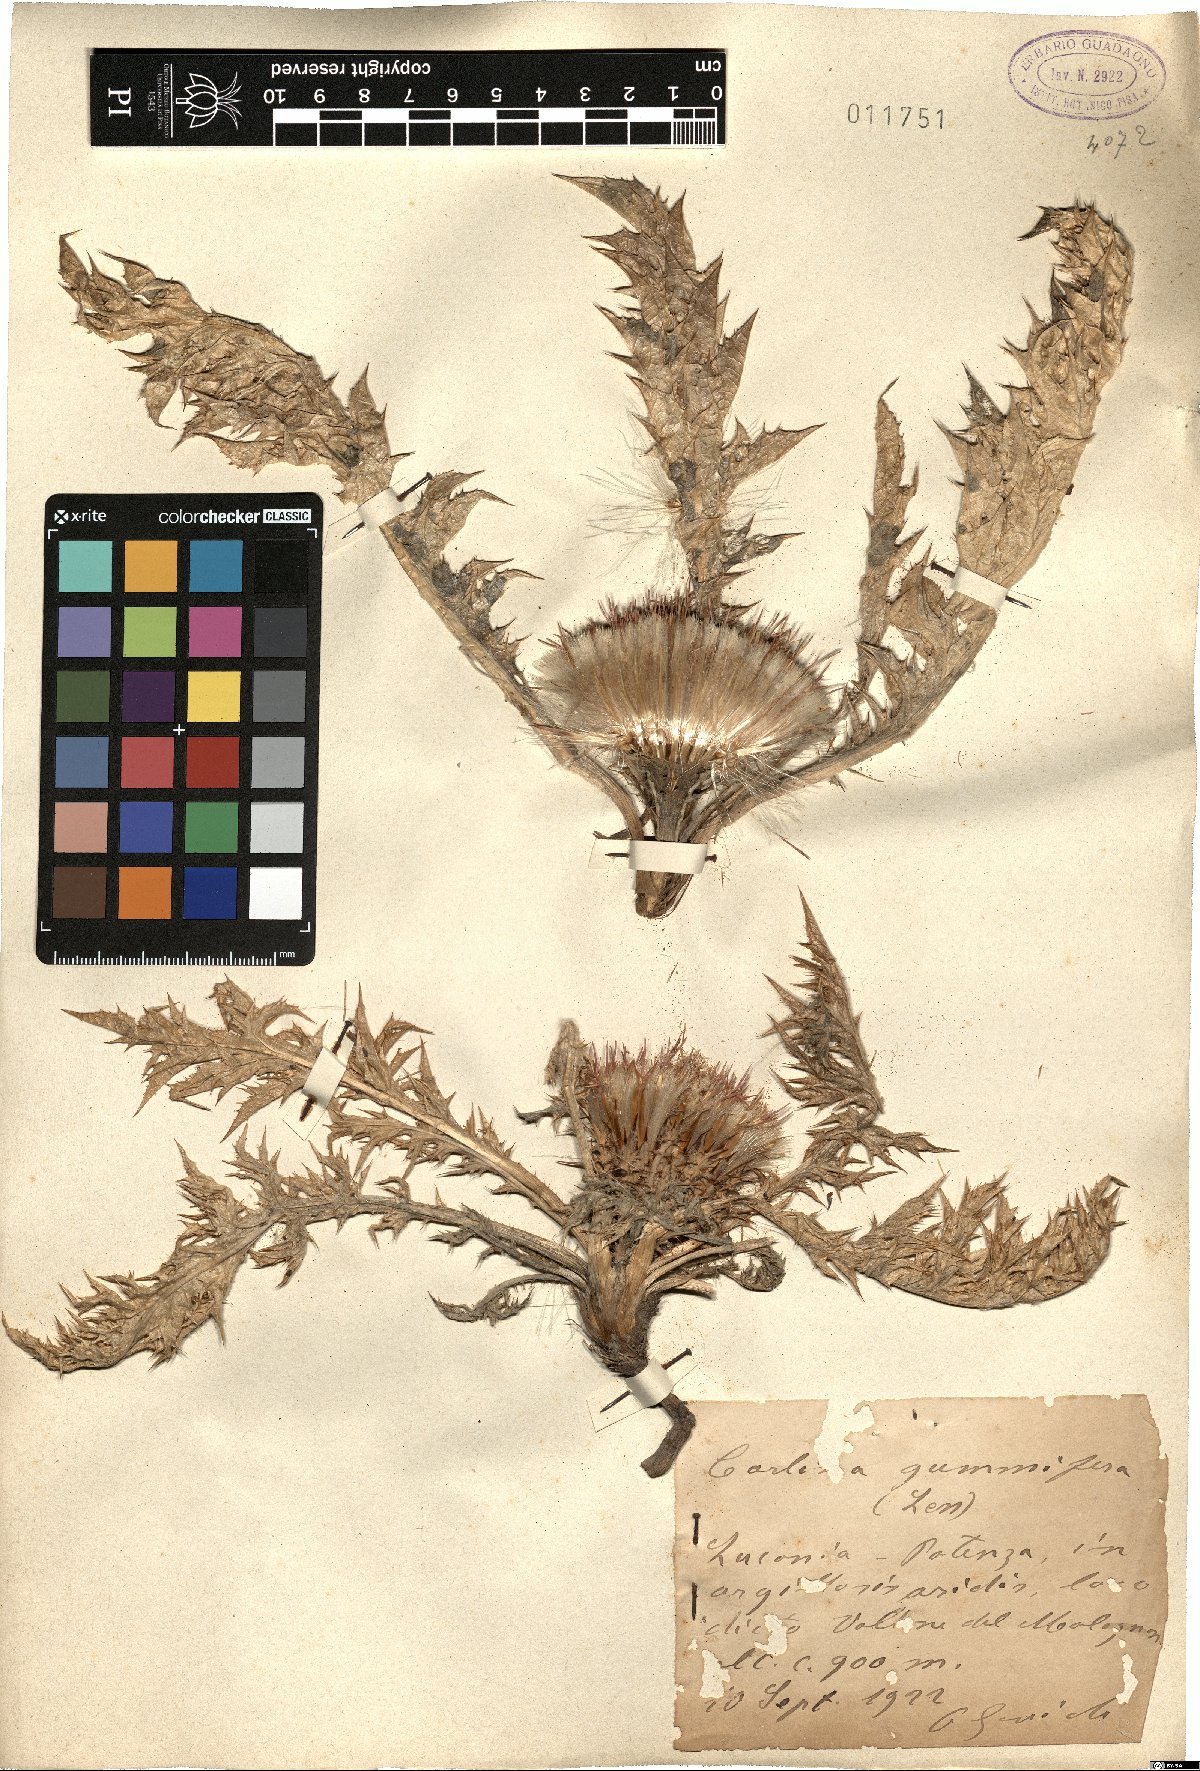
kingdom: Plantae
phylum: Tracheophyta
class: Magnoliopsida
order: Asterales
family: Asteraceae
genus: Chamaeleon
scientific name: Chamaeleon gummifer
